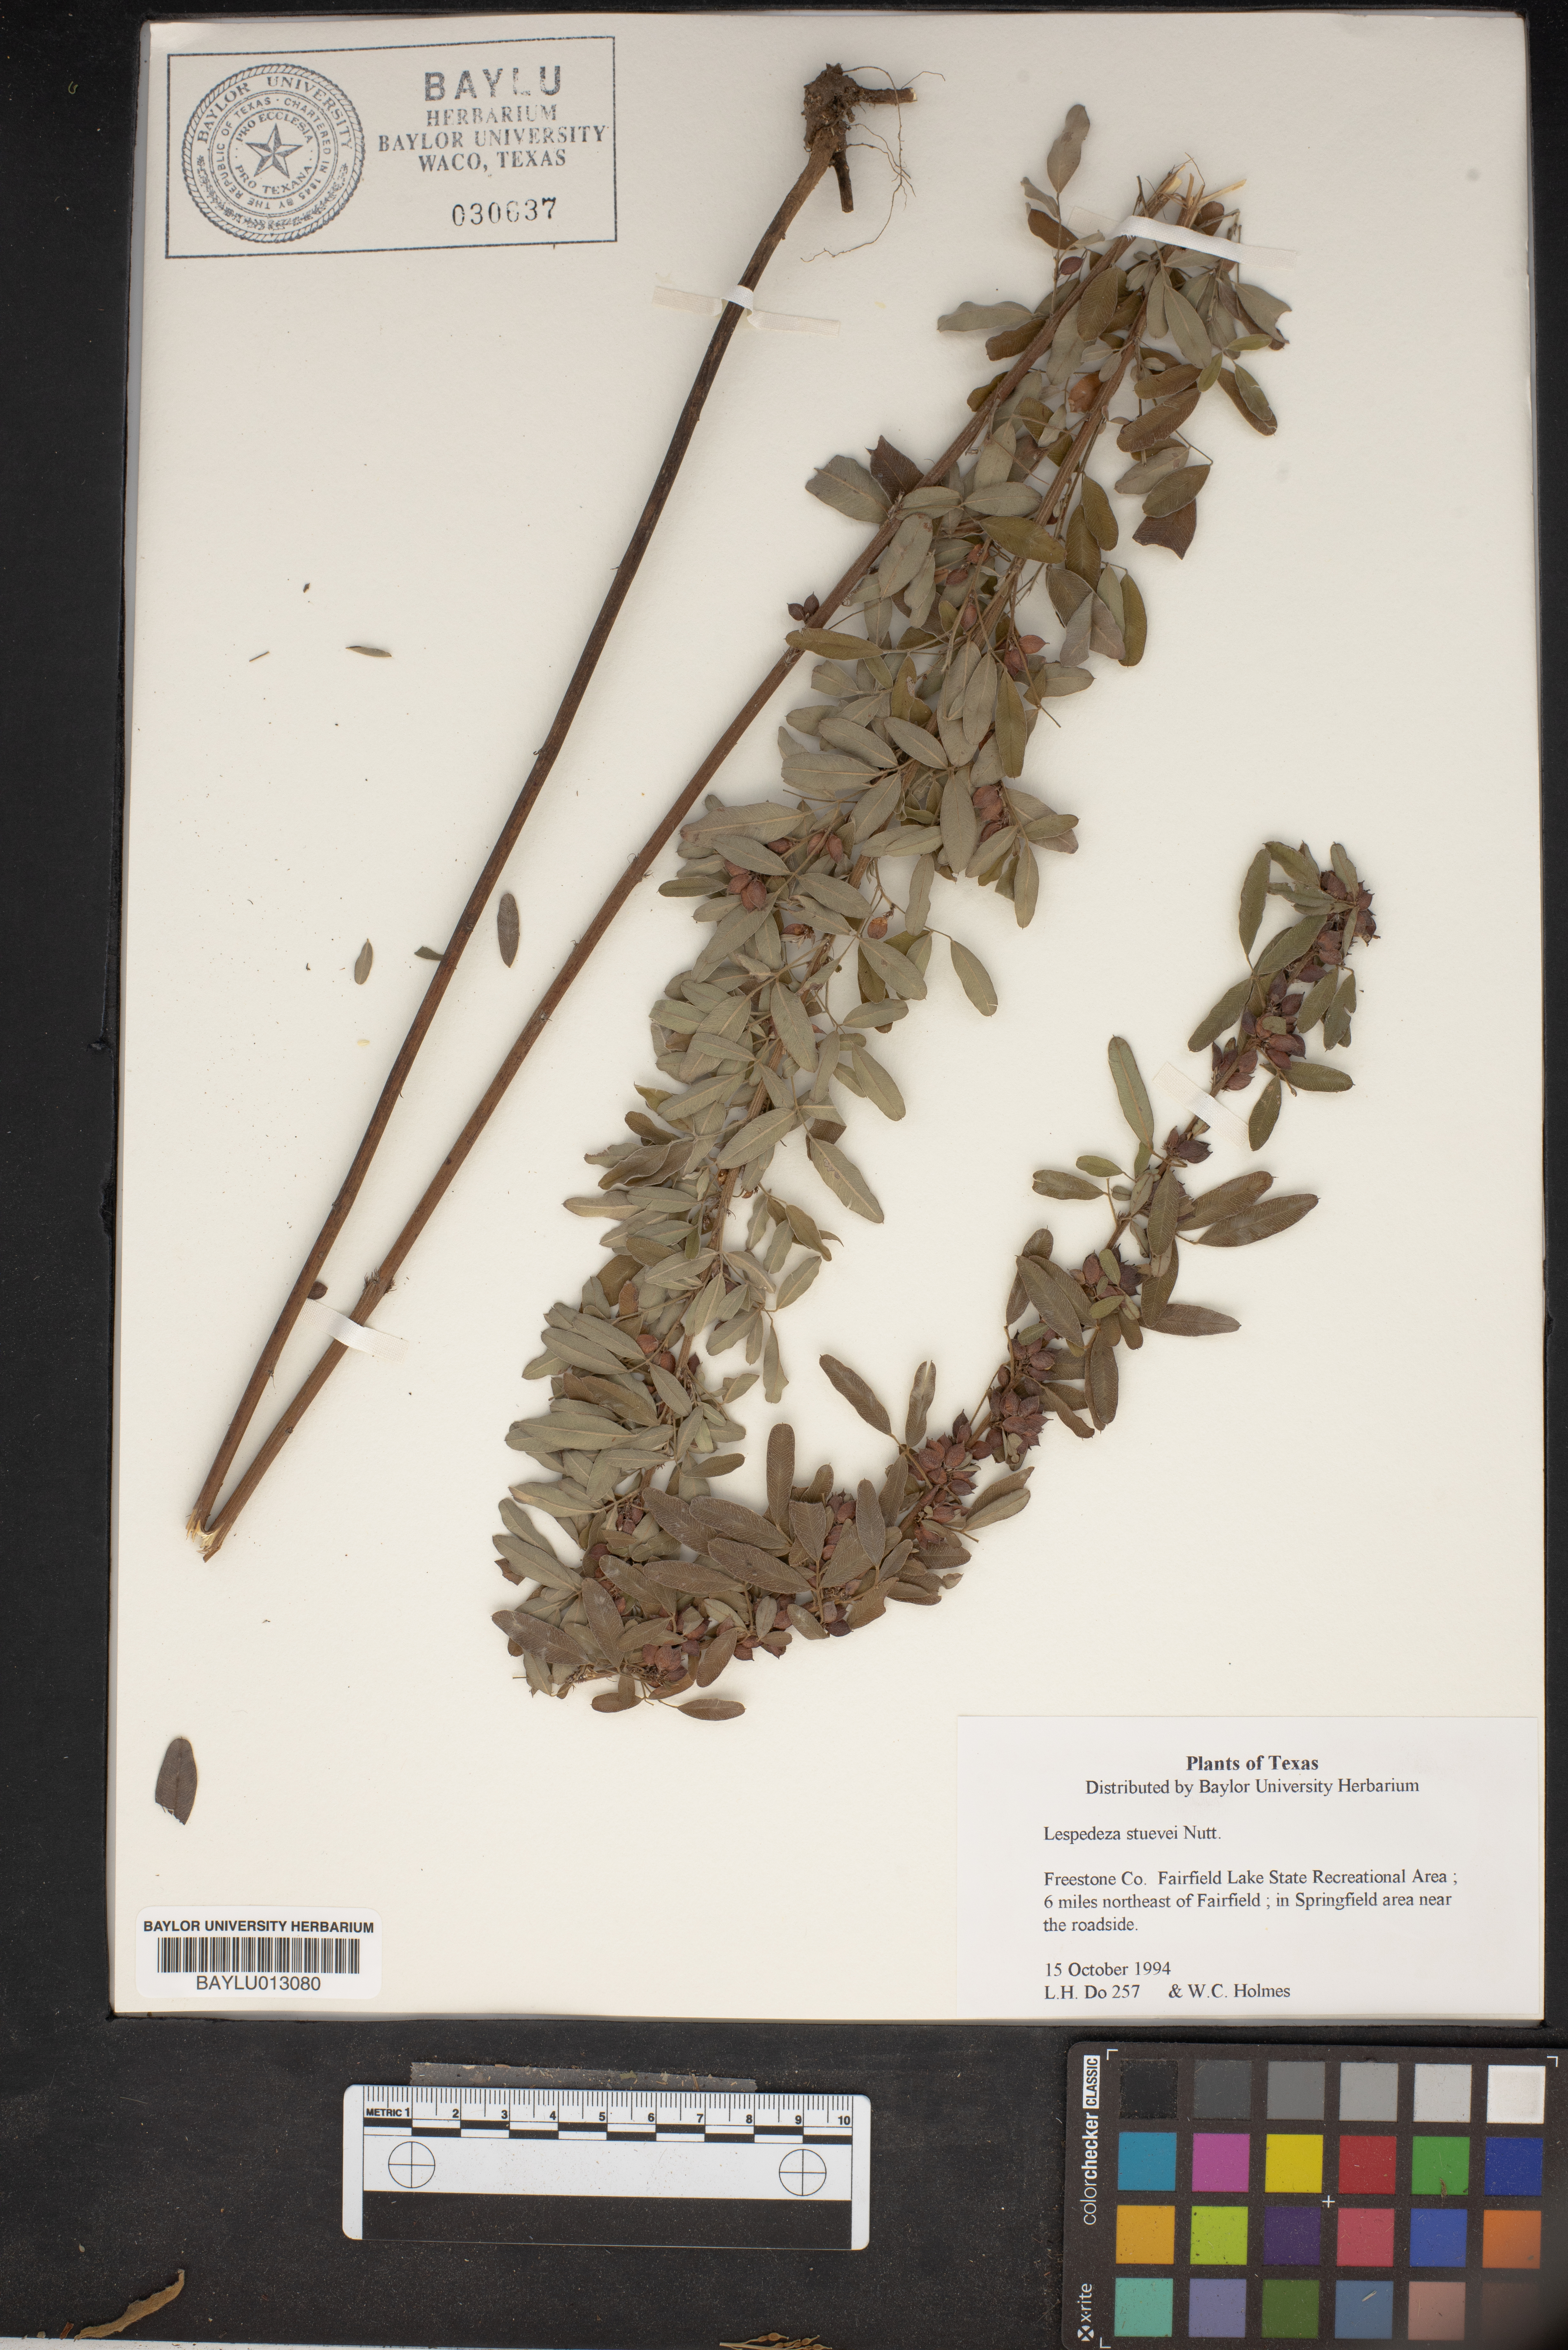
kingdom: Plantae
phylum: Tracheophyta
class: Magnoliopsida
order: Fabales
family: Fabaceae
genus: Lespedeza
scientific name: Lespedeza stuevei
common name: Tall bush-clover
